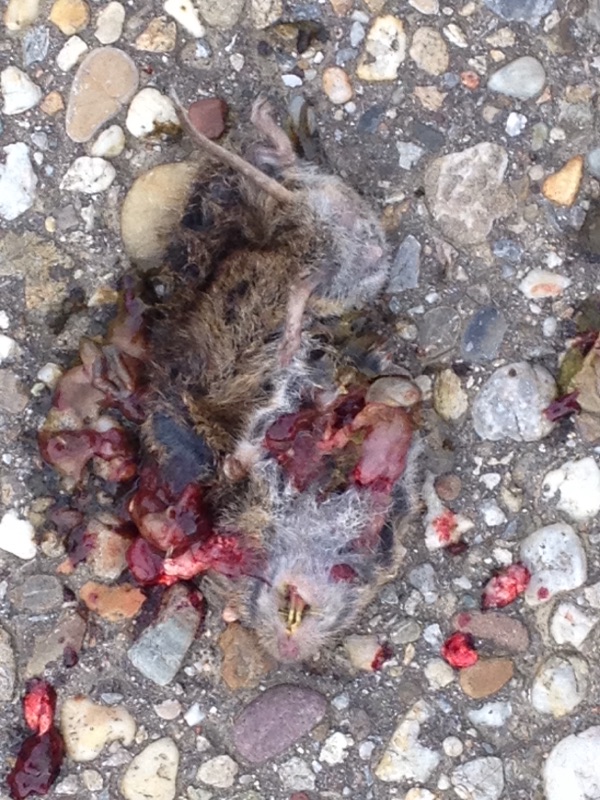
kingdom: Animalia
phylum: Chordata
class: Mammalia
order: Rodentia
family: Cricetidae
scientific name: Cricetidae
